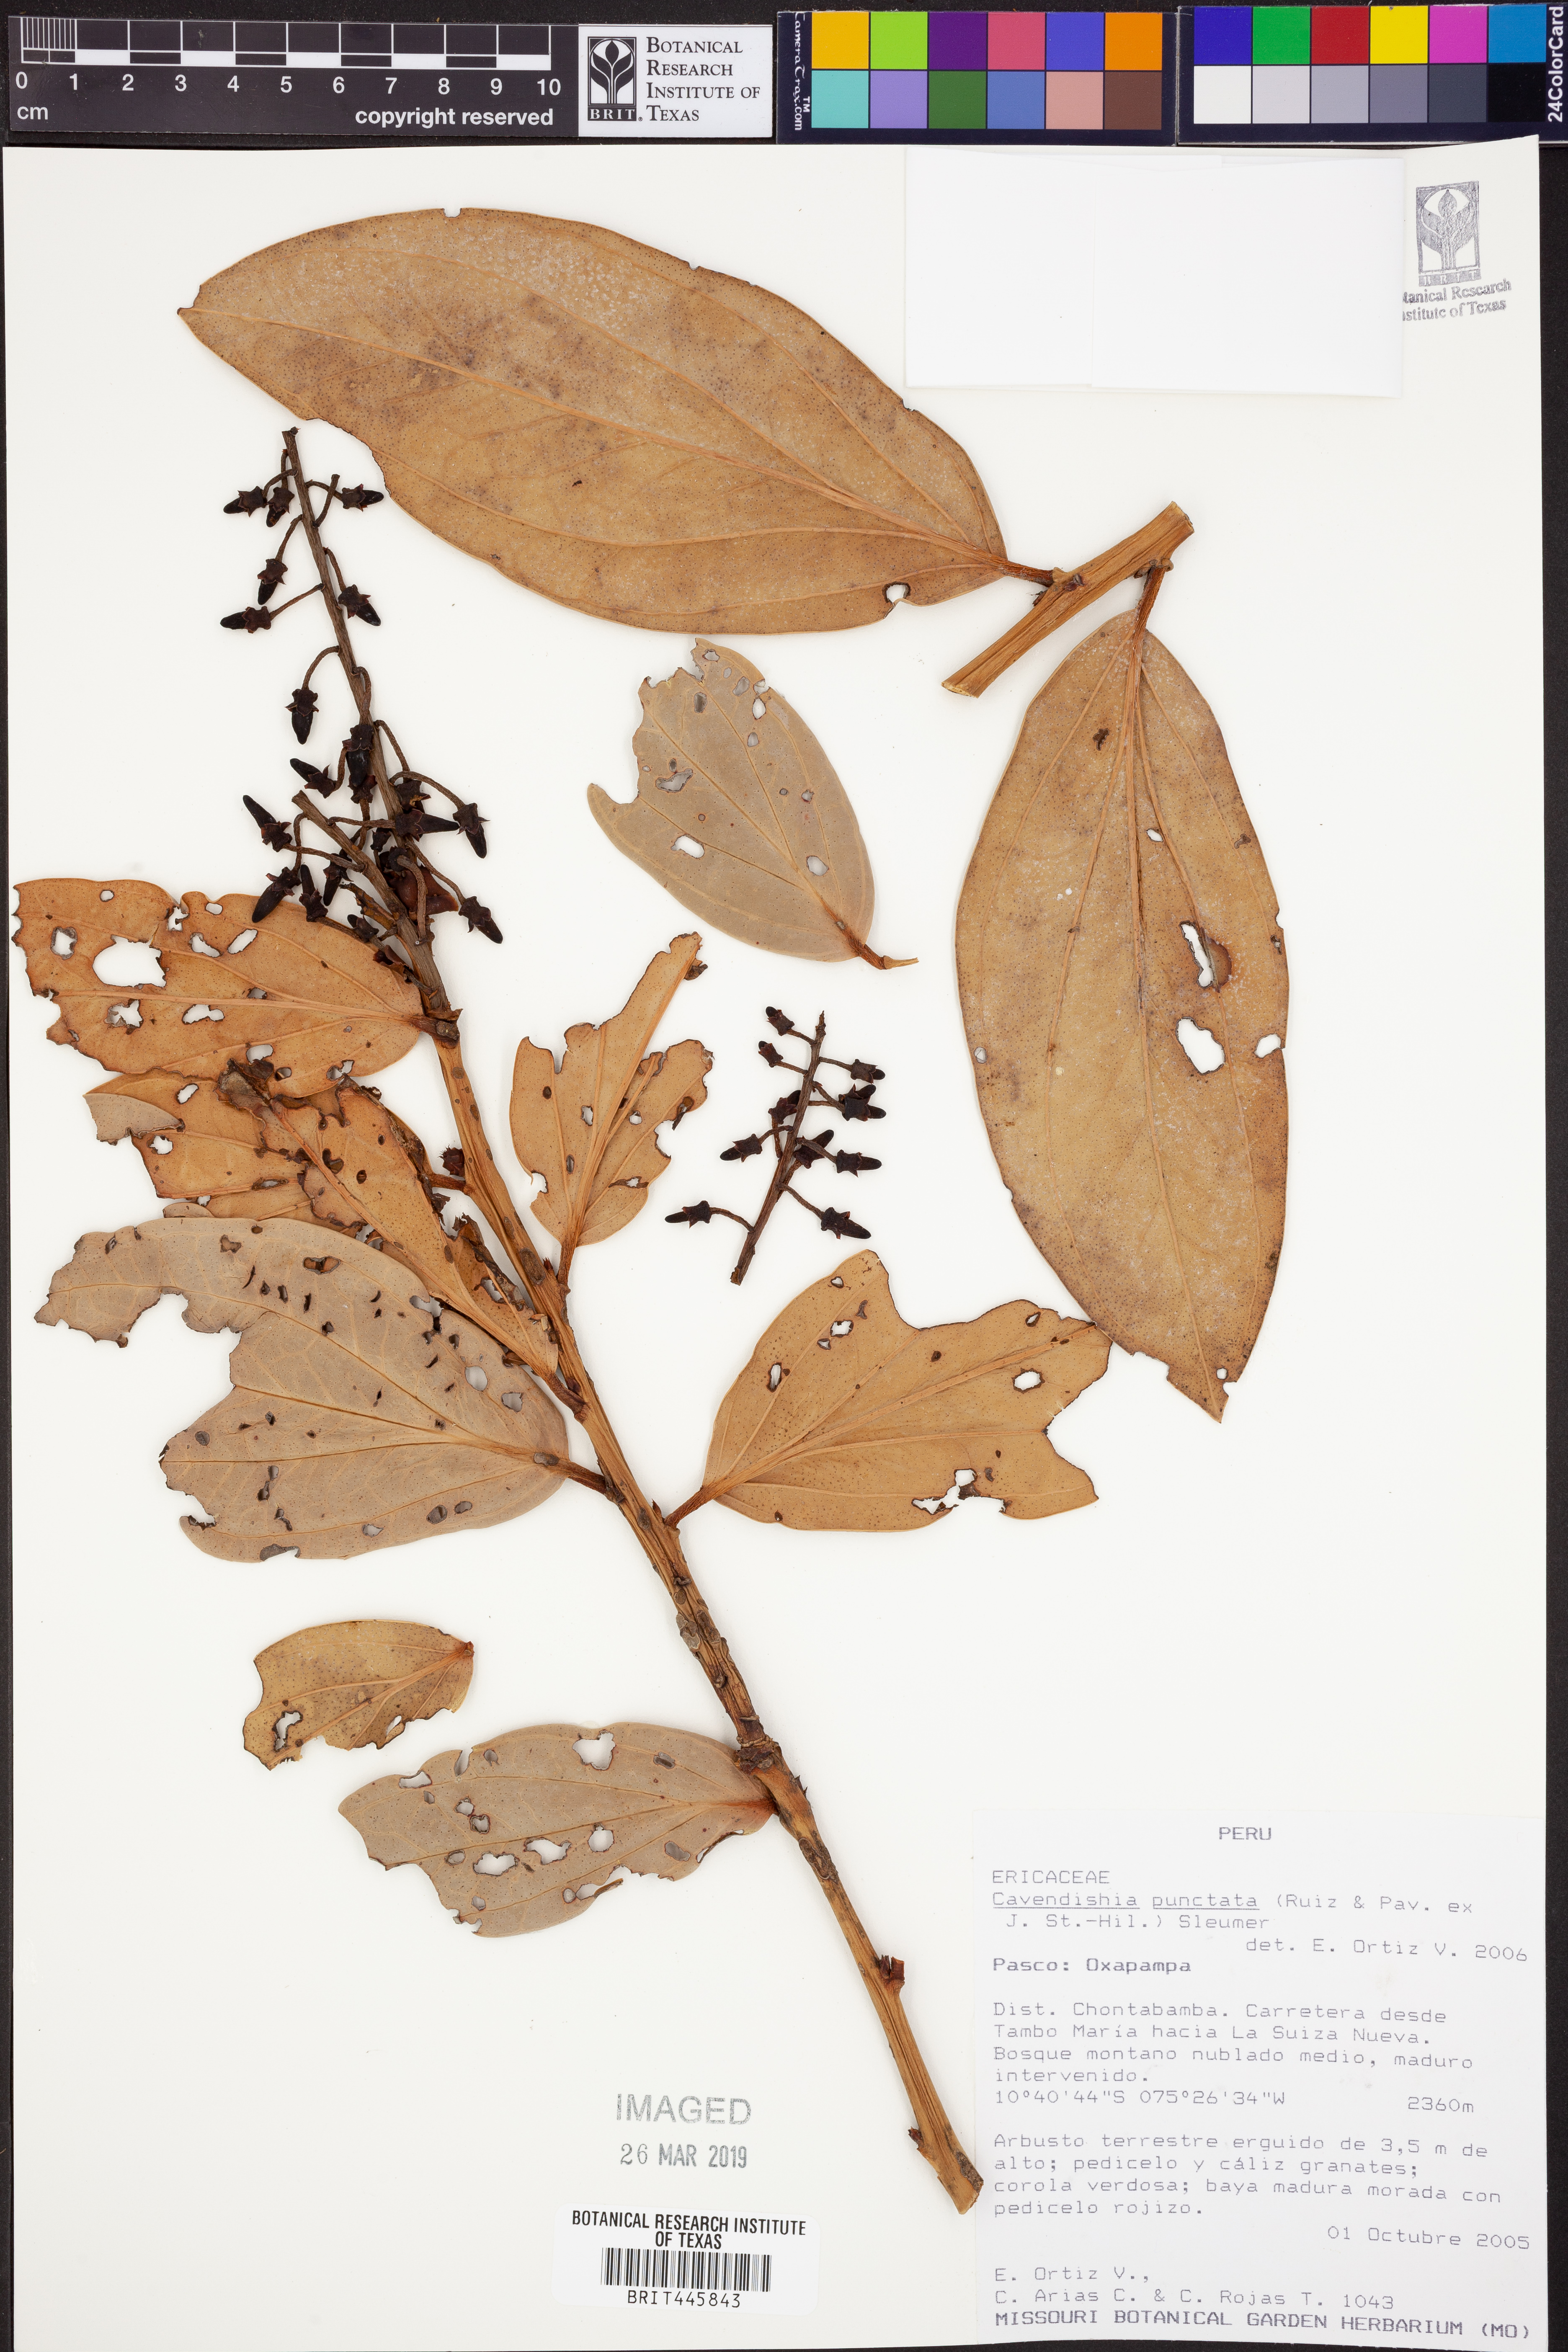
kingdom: Plantae
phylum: Tracheophyta
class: Magnoliopsida
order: Ericales
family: Ericaceae
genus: Cavendishia
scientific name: Cavendishia punctata
